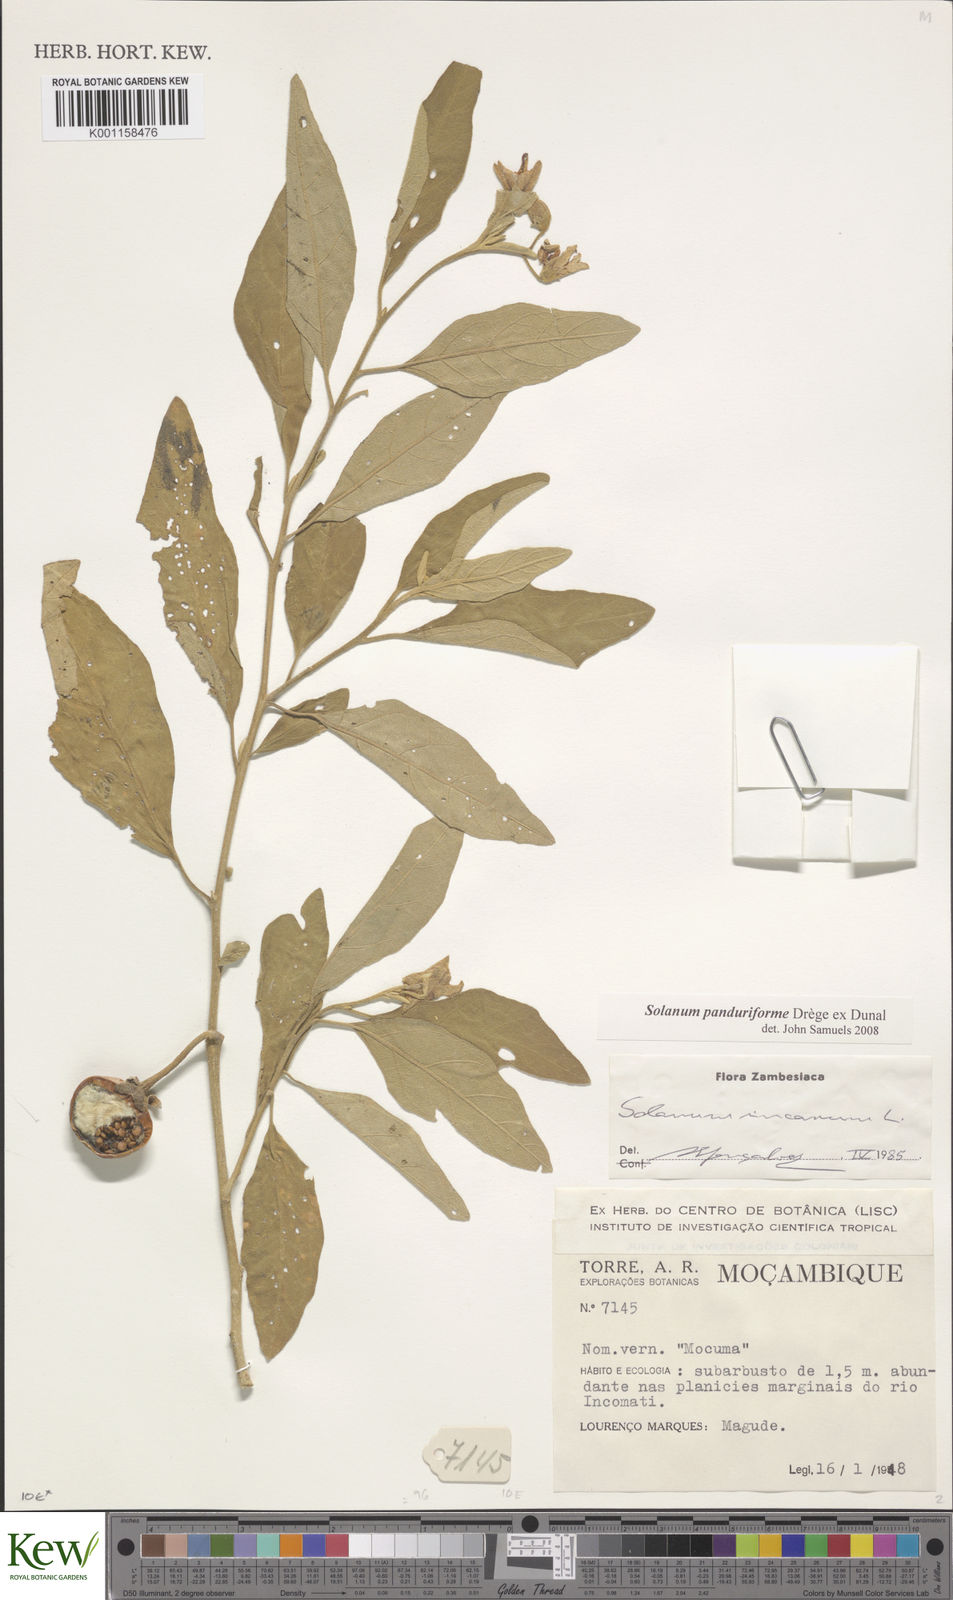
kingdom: Plantae
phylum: Tracheophyta
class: Magnoliopsida
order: Solanales
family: Solanaceae
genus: Solanum
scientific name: Solanum campylacanthum
